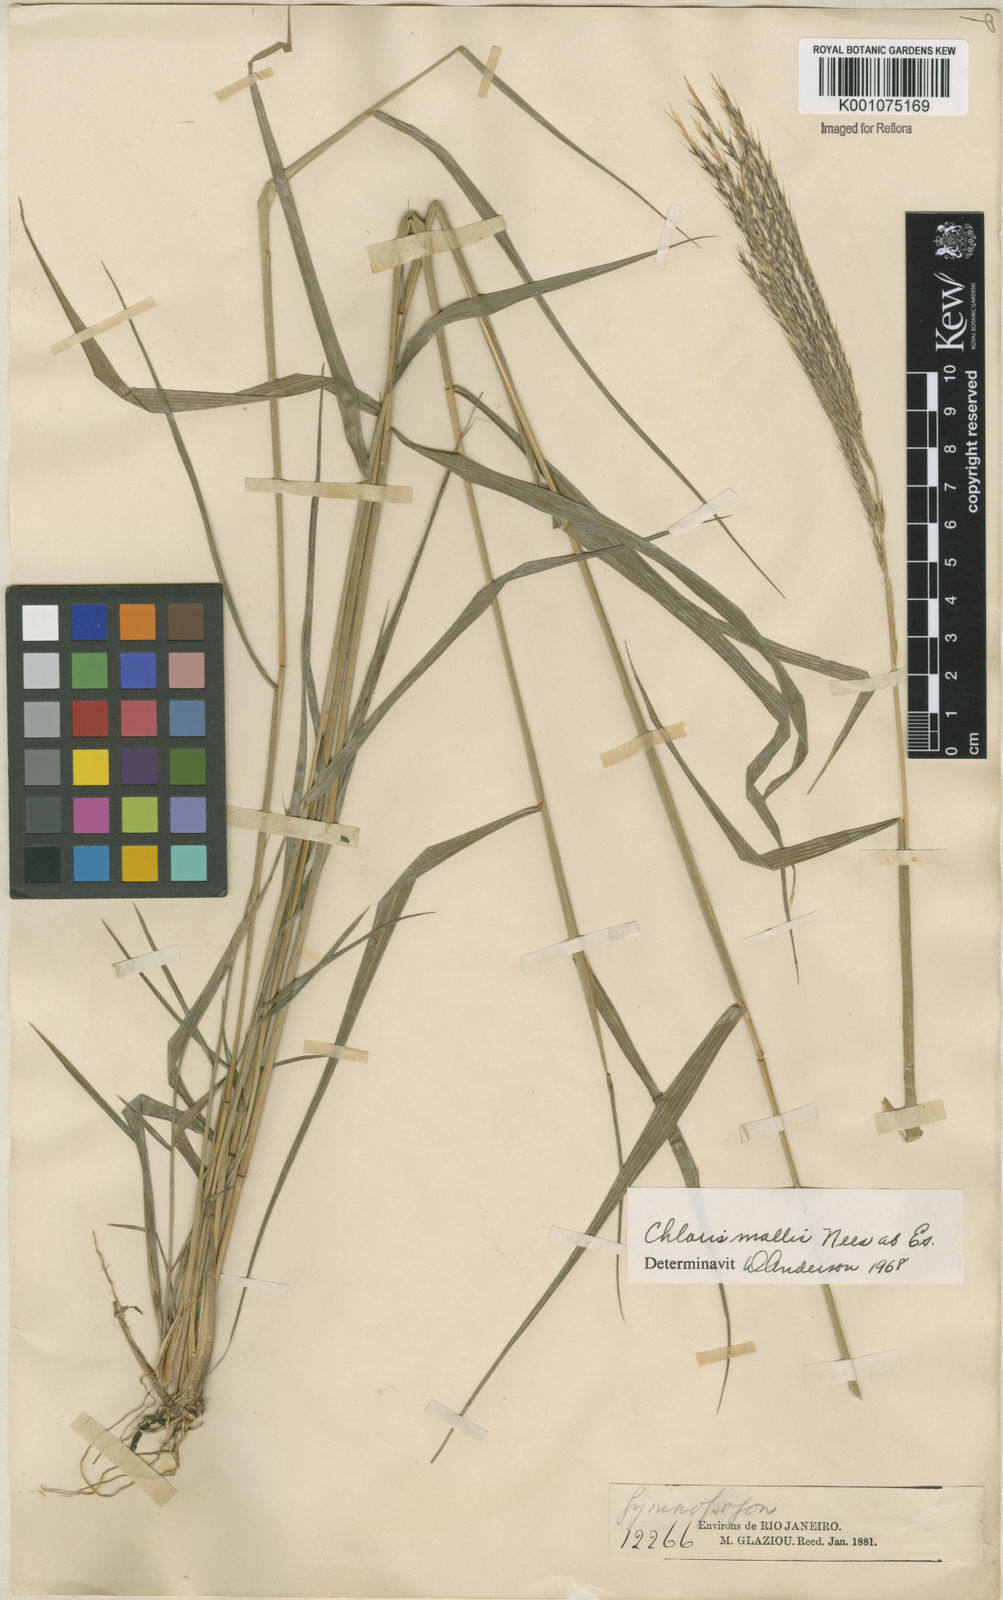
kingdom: Plantae
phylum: Tracheophyta
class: Liliopsida
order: Poales
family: Poaceae
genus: Leptochloa
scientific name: Leptochloa anisopoda
